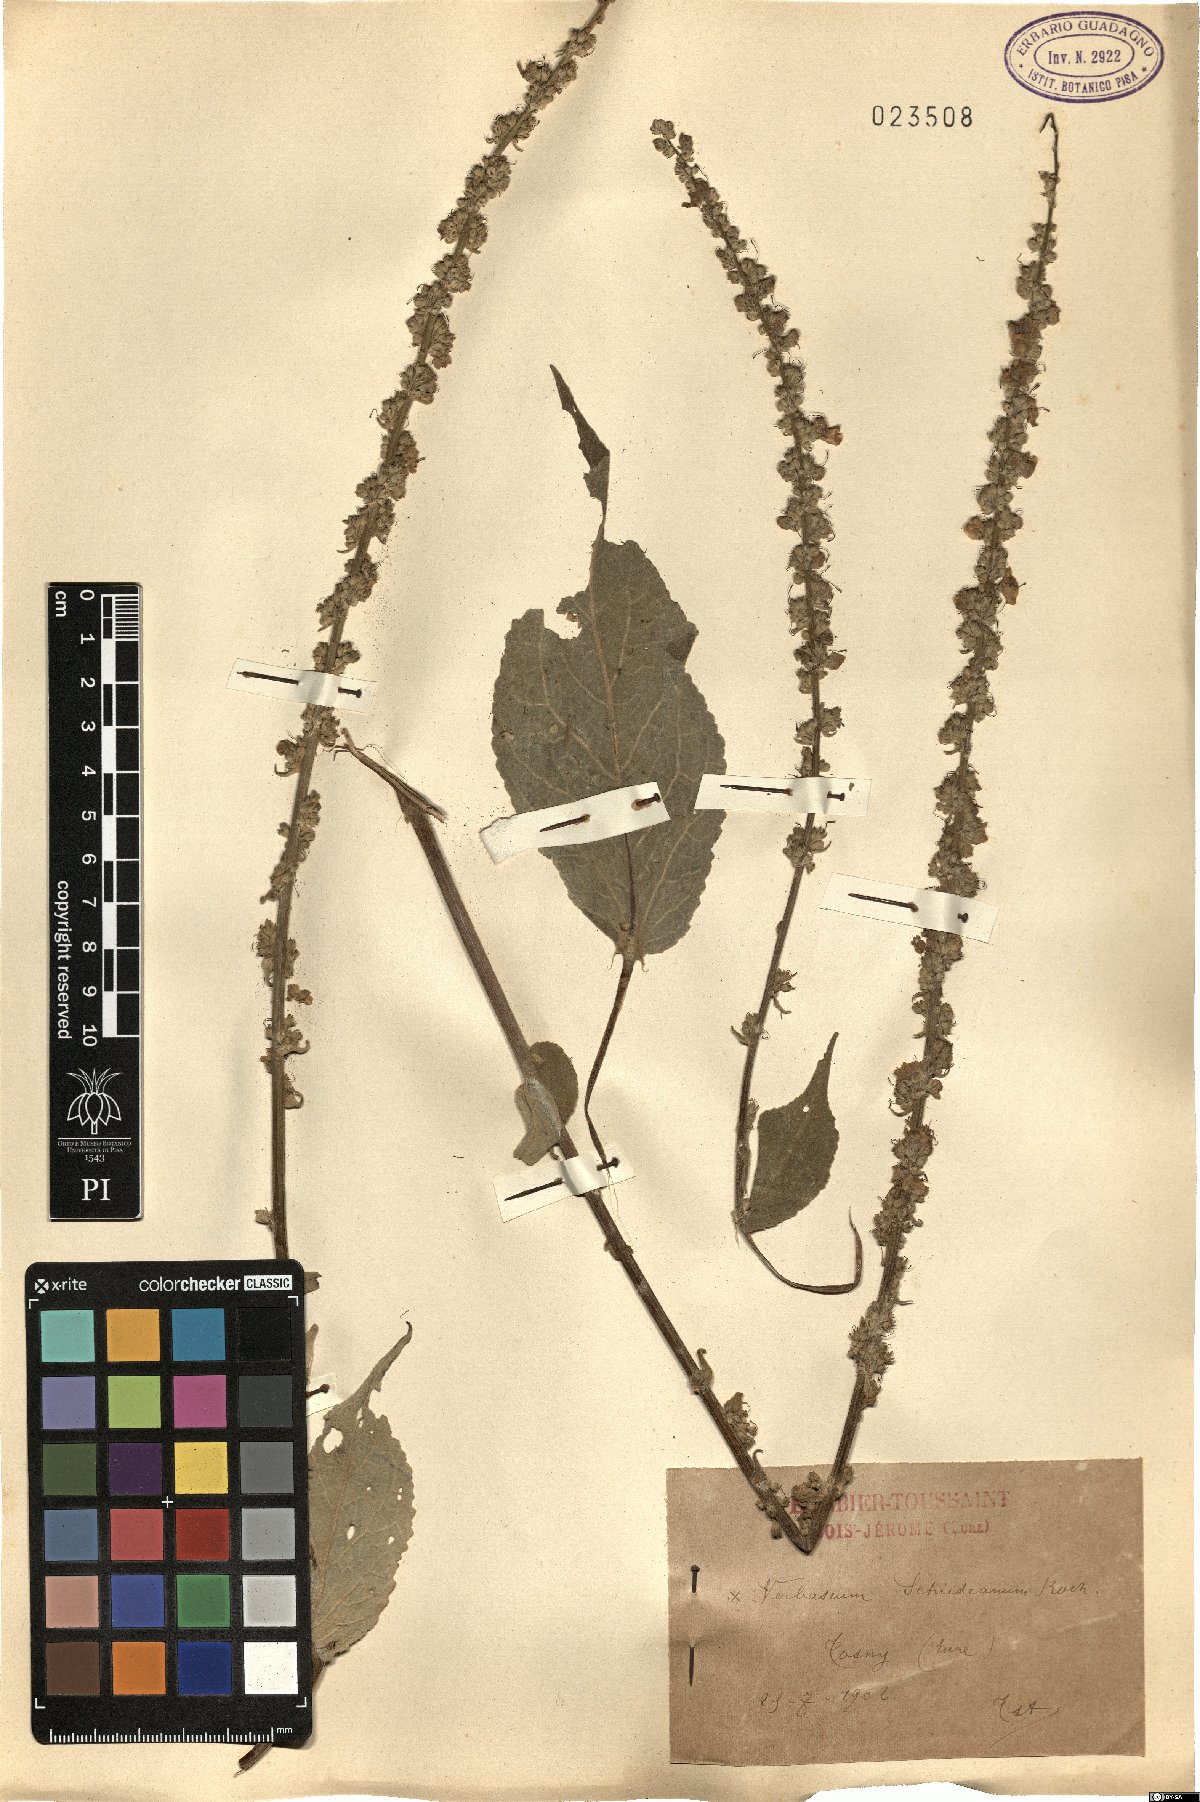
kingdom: Plantae
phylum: Tracheophyta
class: Magnoliopsida
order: Lamiales
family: Scrophulariaceae
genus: Verbascum
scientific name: Verbascum biebersteinii
